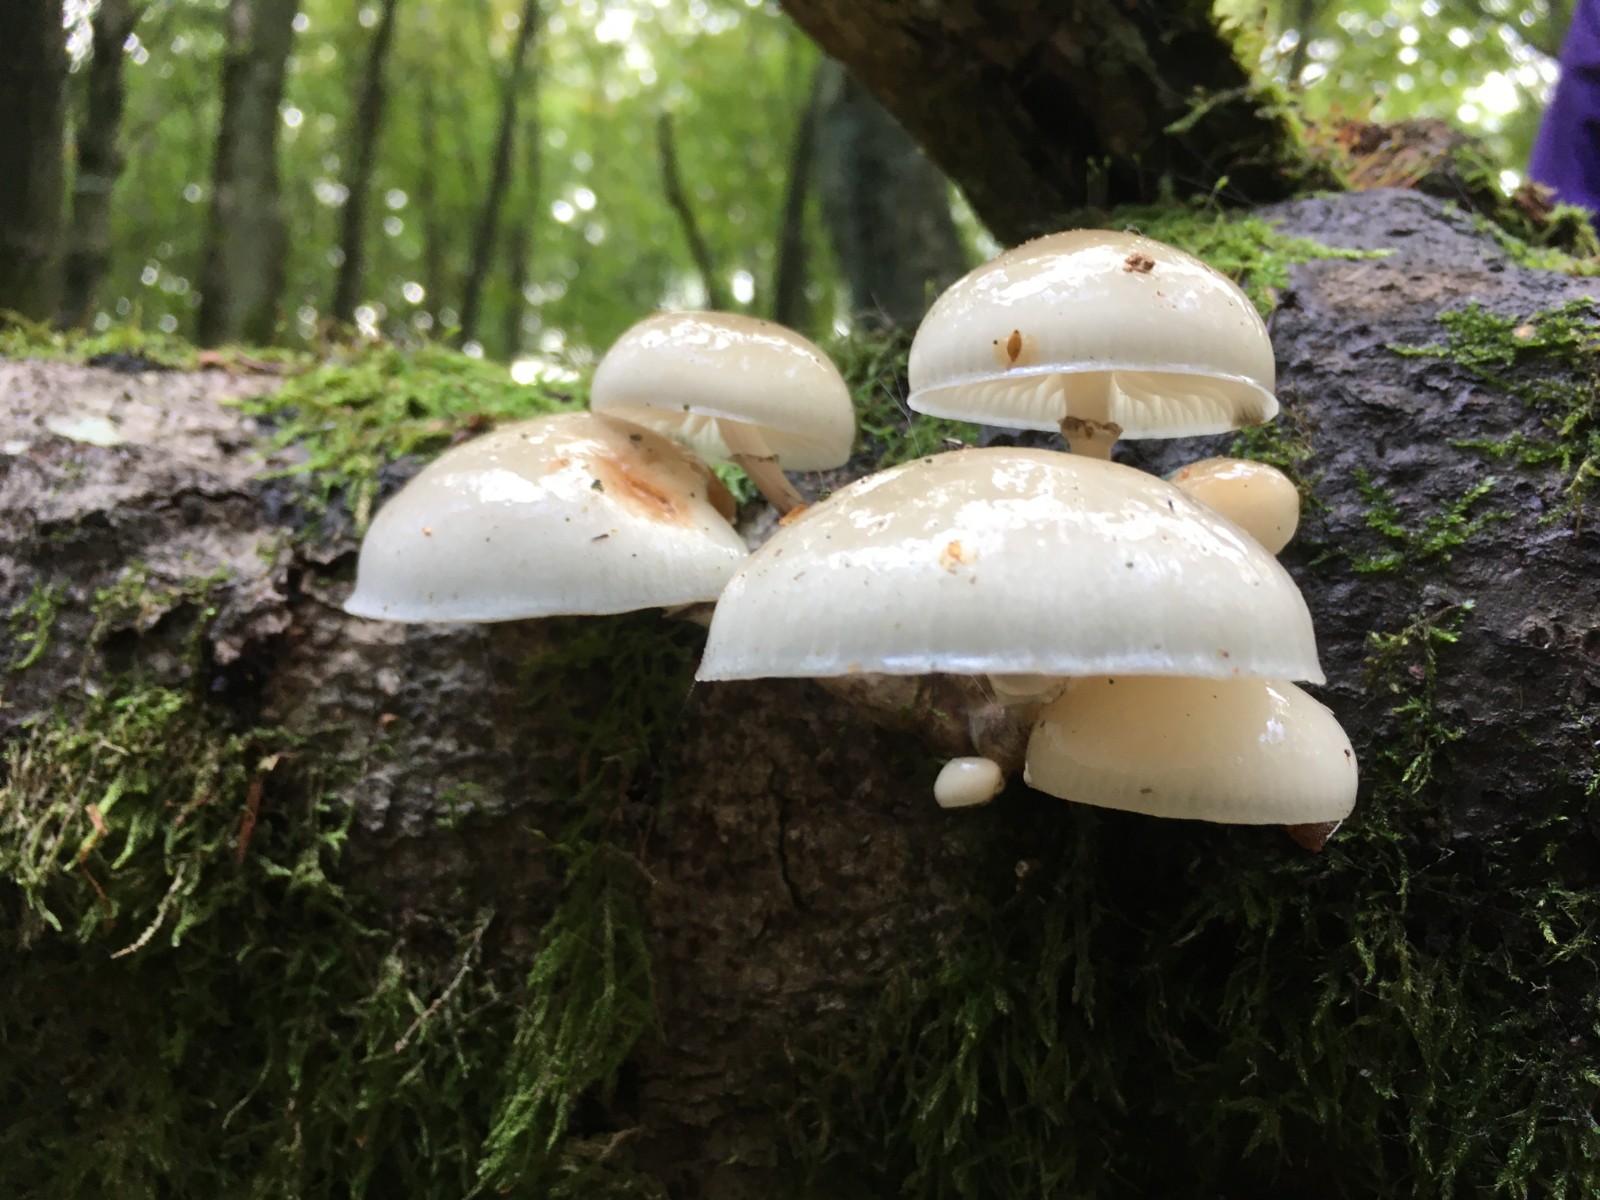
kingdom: Fungi
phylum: Basidiomycota
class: Agaricomycetes
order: Agaricales
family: Physalacriaceae
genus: Mucidula
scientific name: Mucidula mucida
